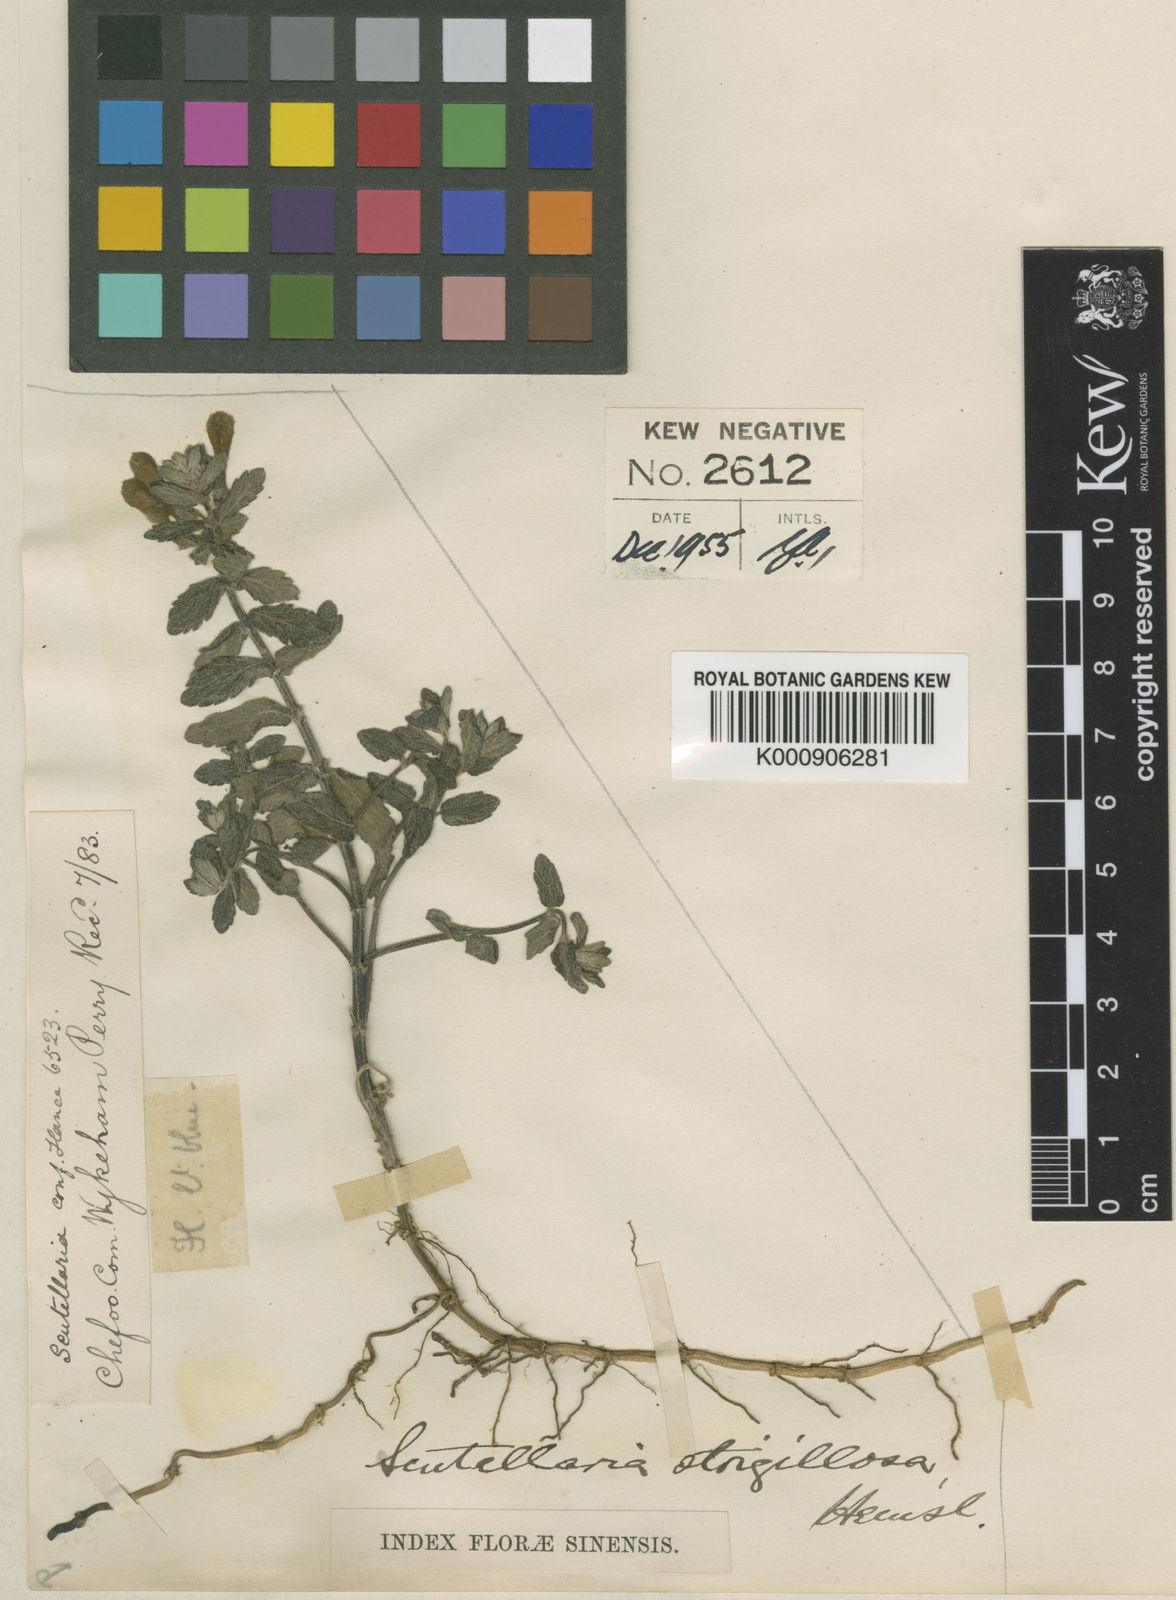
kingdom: Plantae
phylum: Tracheophyta
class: Magnoliopsida
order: Lamiales
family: Lamiaceae
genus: Scutellaria
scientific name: Scutellaria strigillosa
